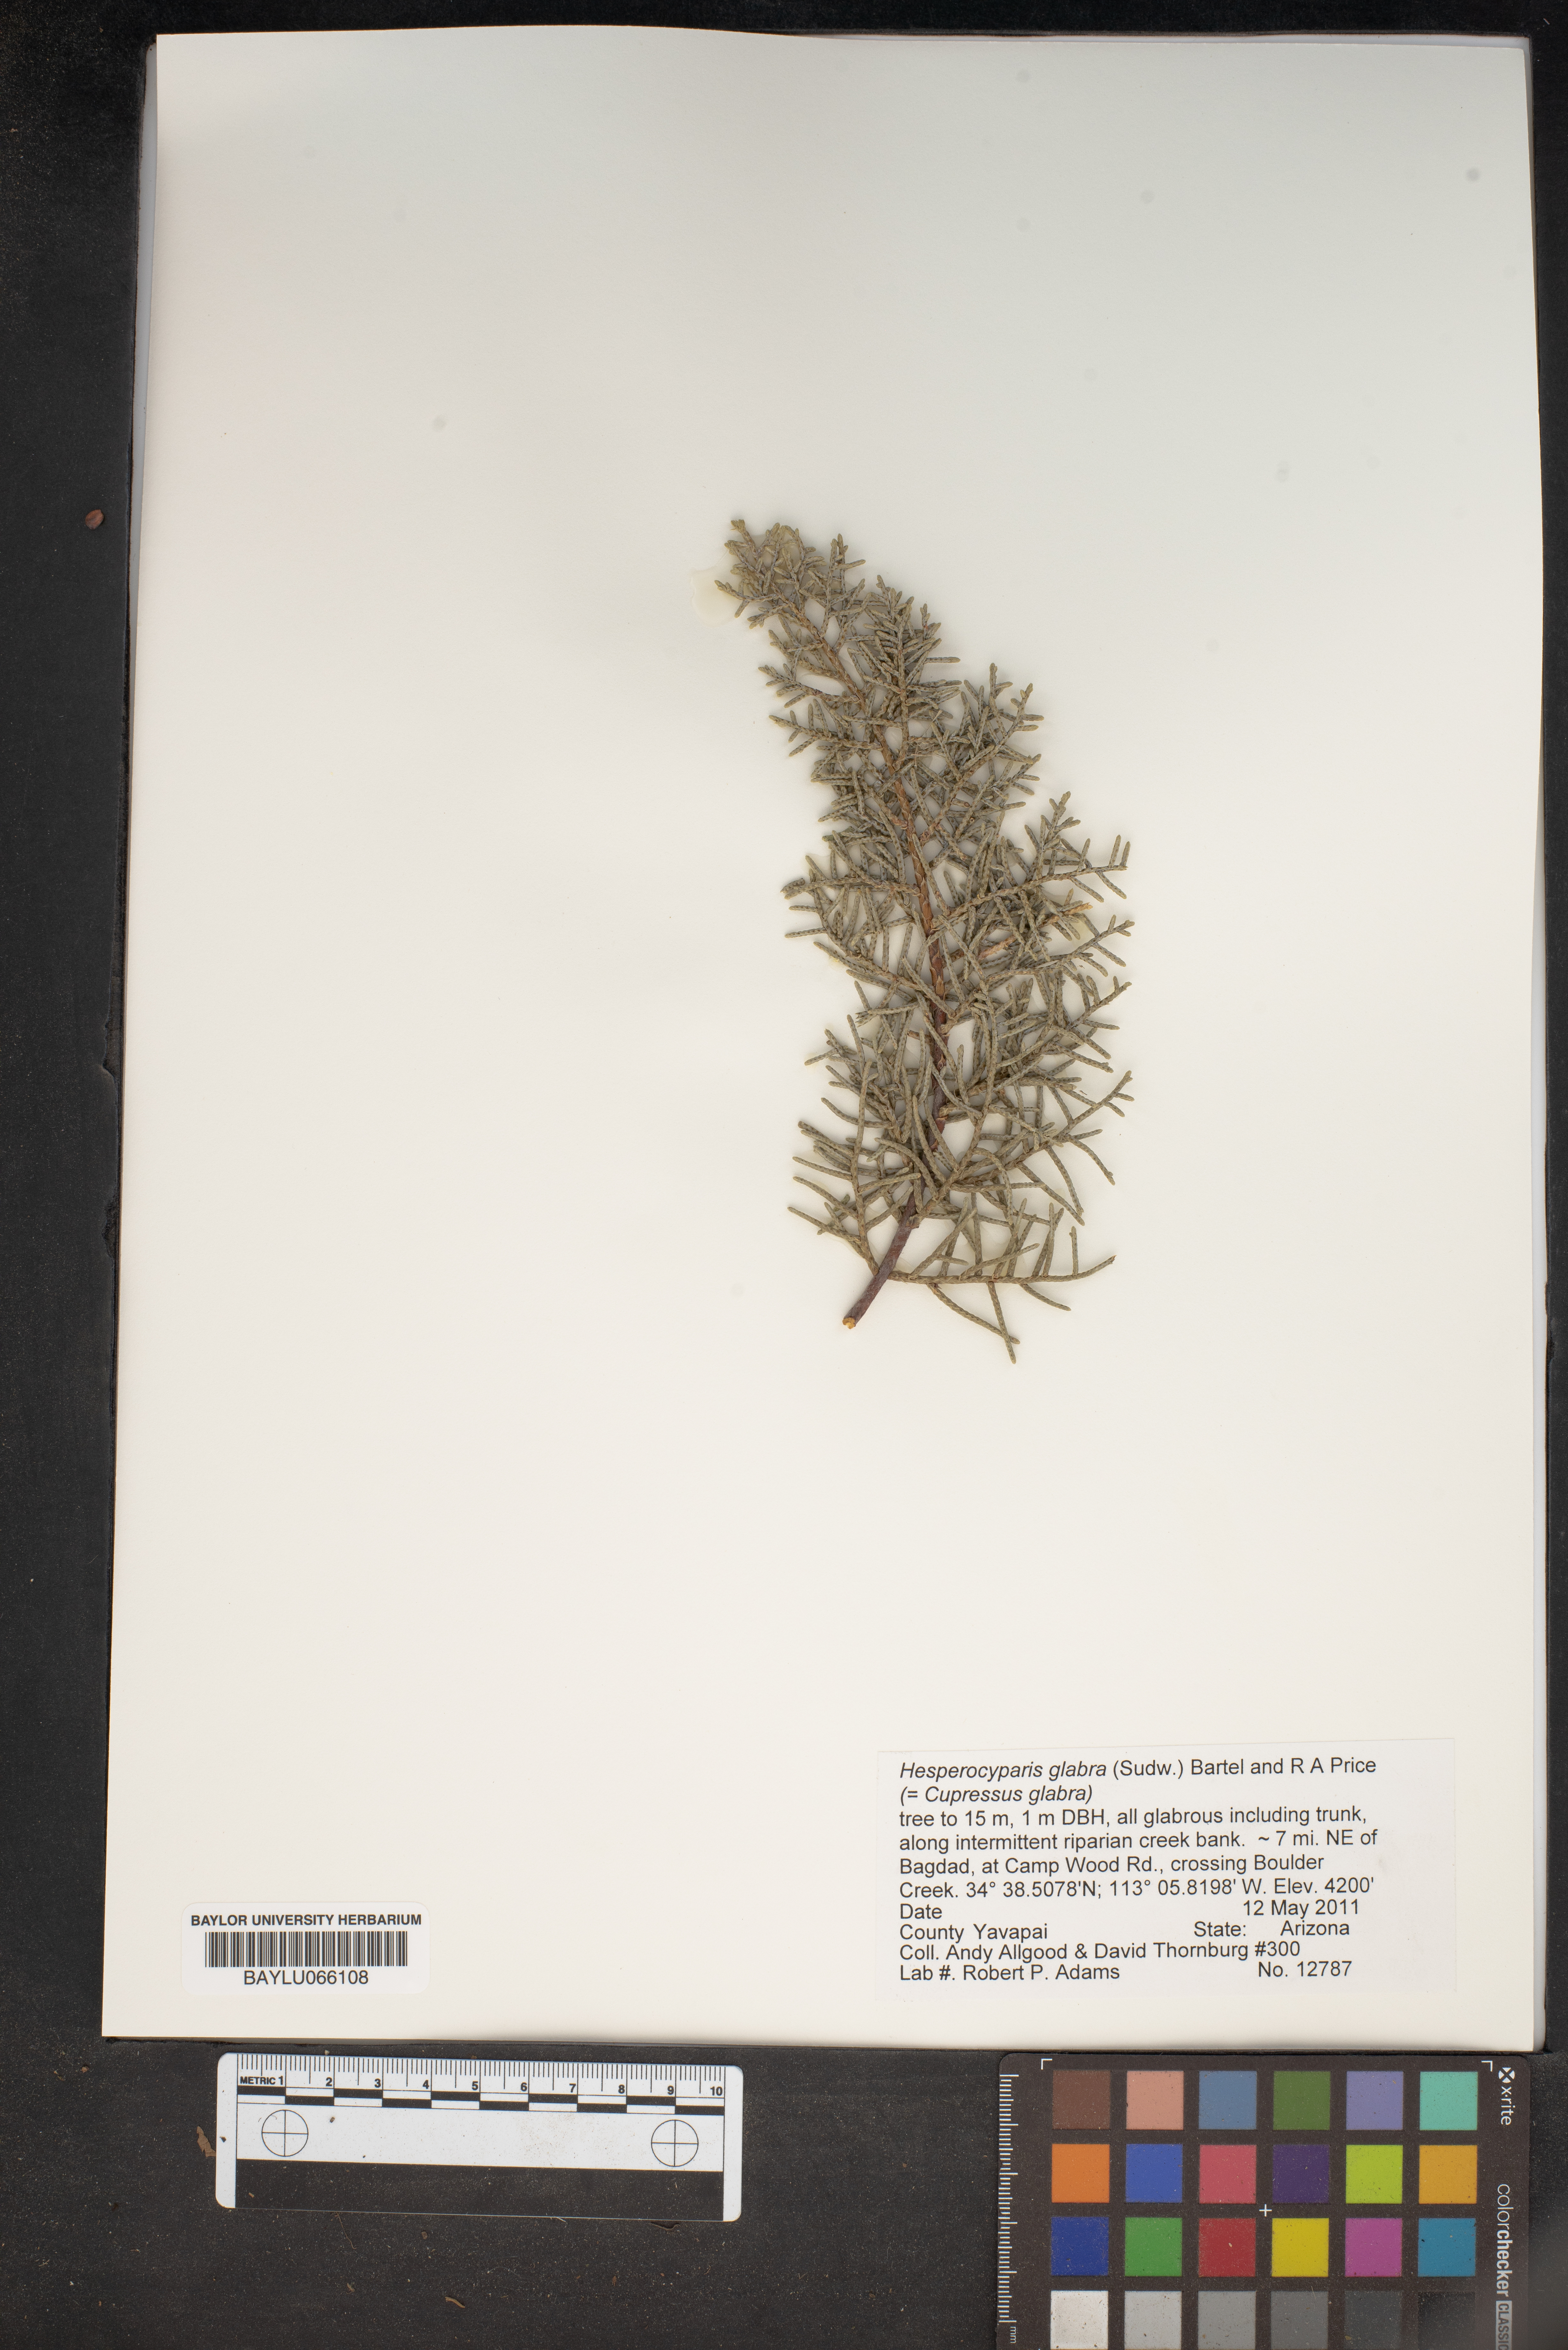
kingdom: Plantae
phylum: Tracheophyta
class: Pinopsida
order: Pinales
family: Cupressaceae
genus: Cupressus
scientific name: Cupressus arizonica
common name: Arizona cypress
